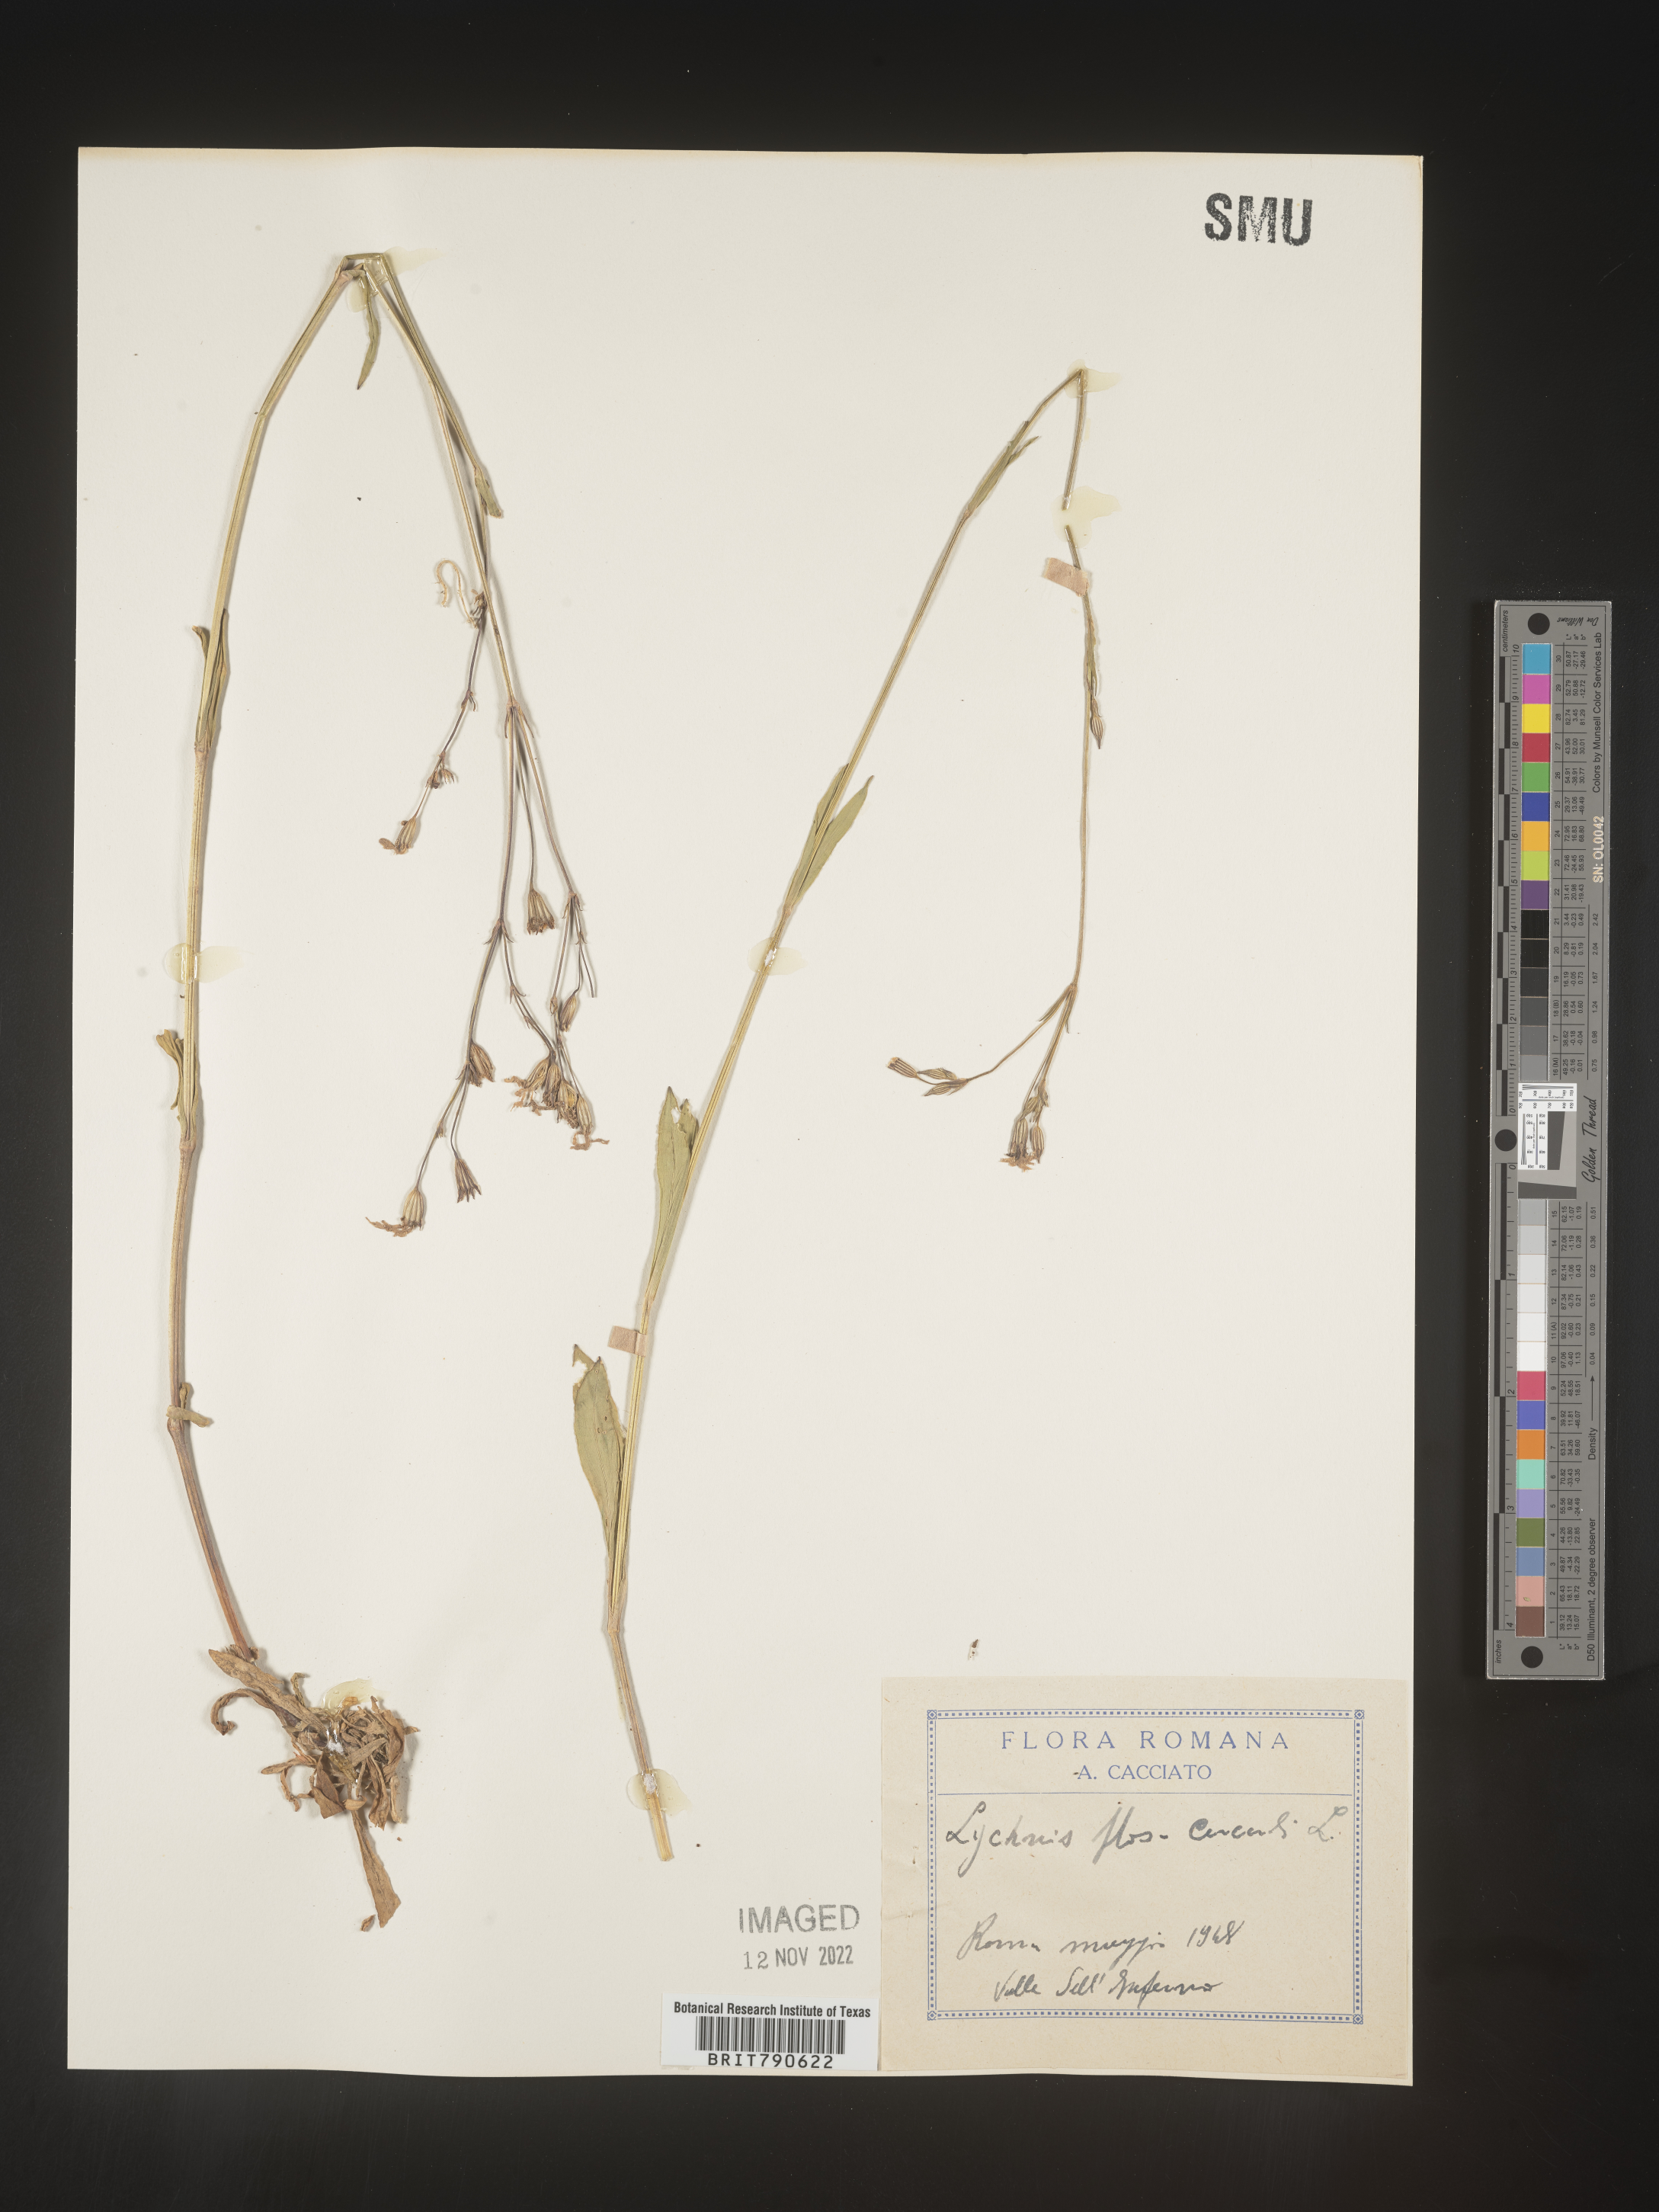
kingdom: Plantae
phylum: Tracheophyta
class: Magnoliopsida
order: Caryophyllales
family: Caryophyllaceae
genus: Silene
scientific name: Silene
